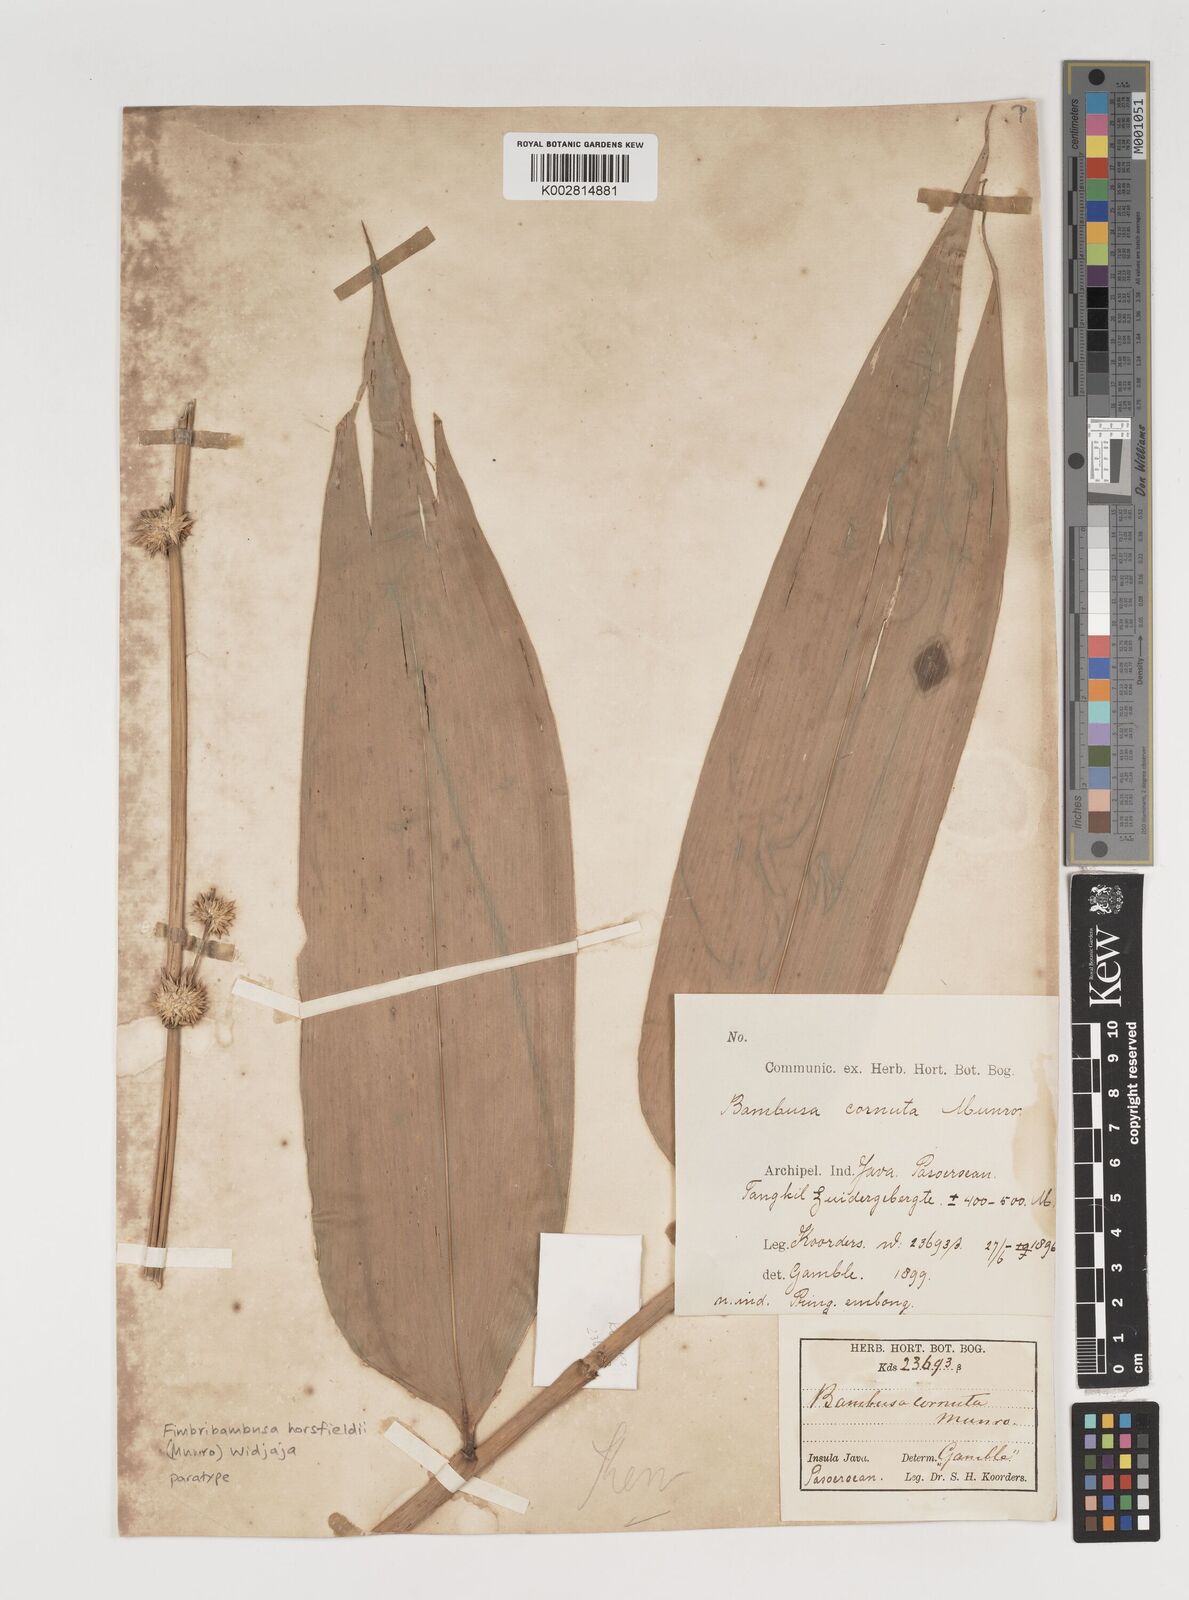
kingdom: Plantae
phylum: Tracheophyta
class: Liliopsida
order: Poales
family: Poaceae
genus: Fimbribambusa
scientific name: Fimbribambusa horsfieldii
